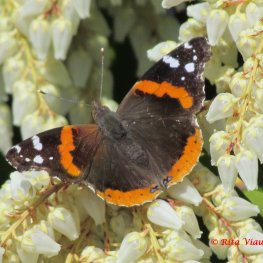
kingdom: Animalia
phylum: Arthropoda
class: Insecta
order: Lepidoptera
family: Nymphalidae
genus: Vanessa
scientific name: Vanessa atalanta
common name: Red Admiral
